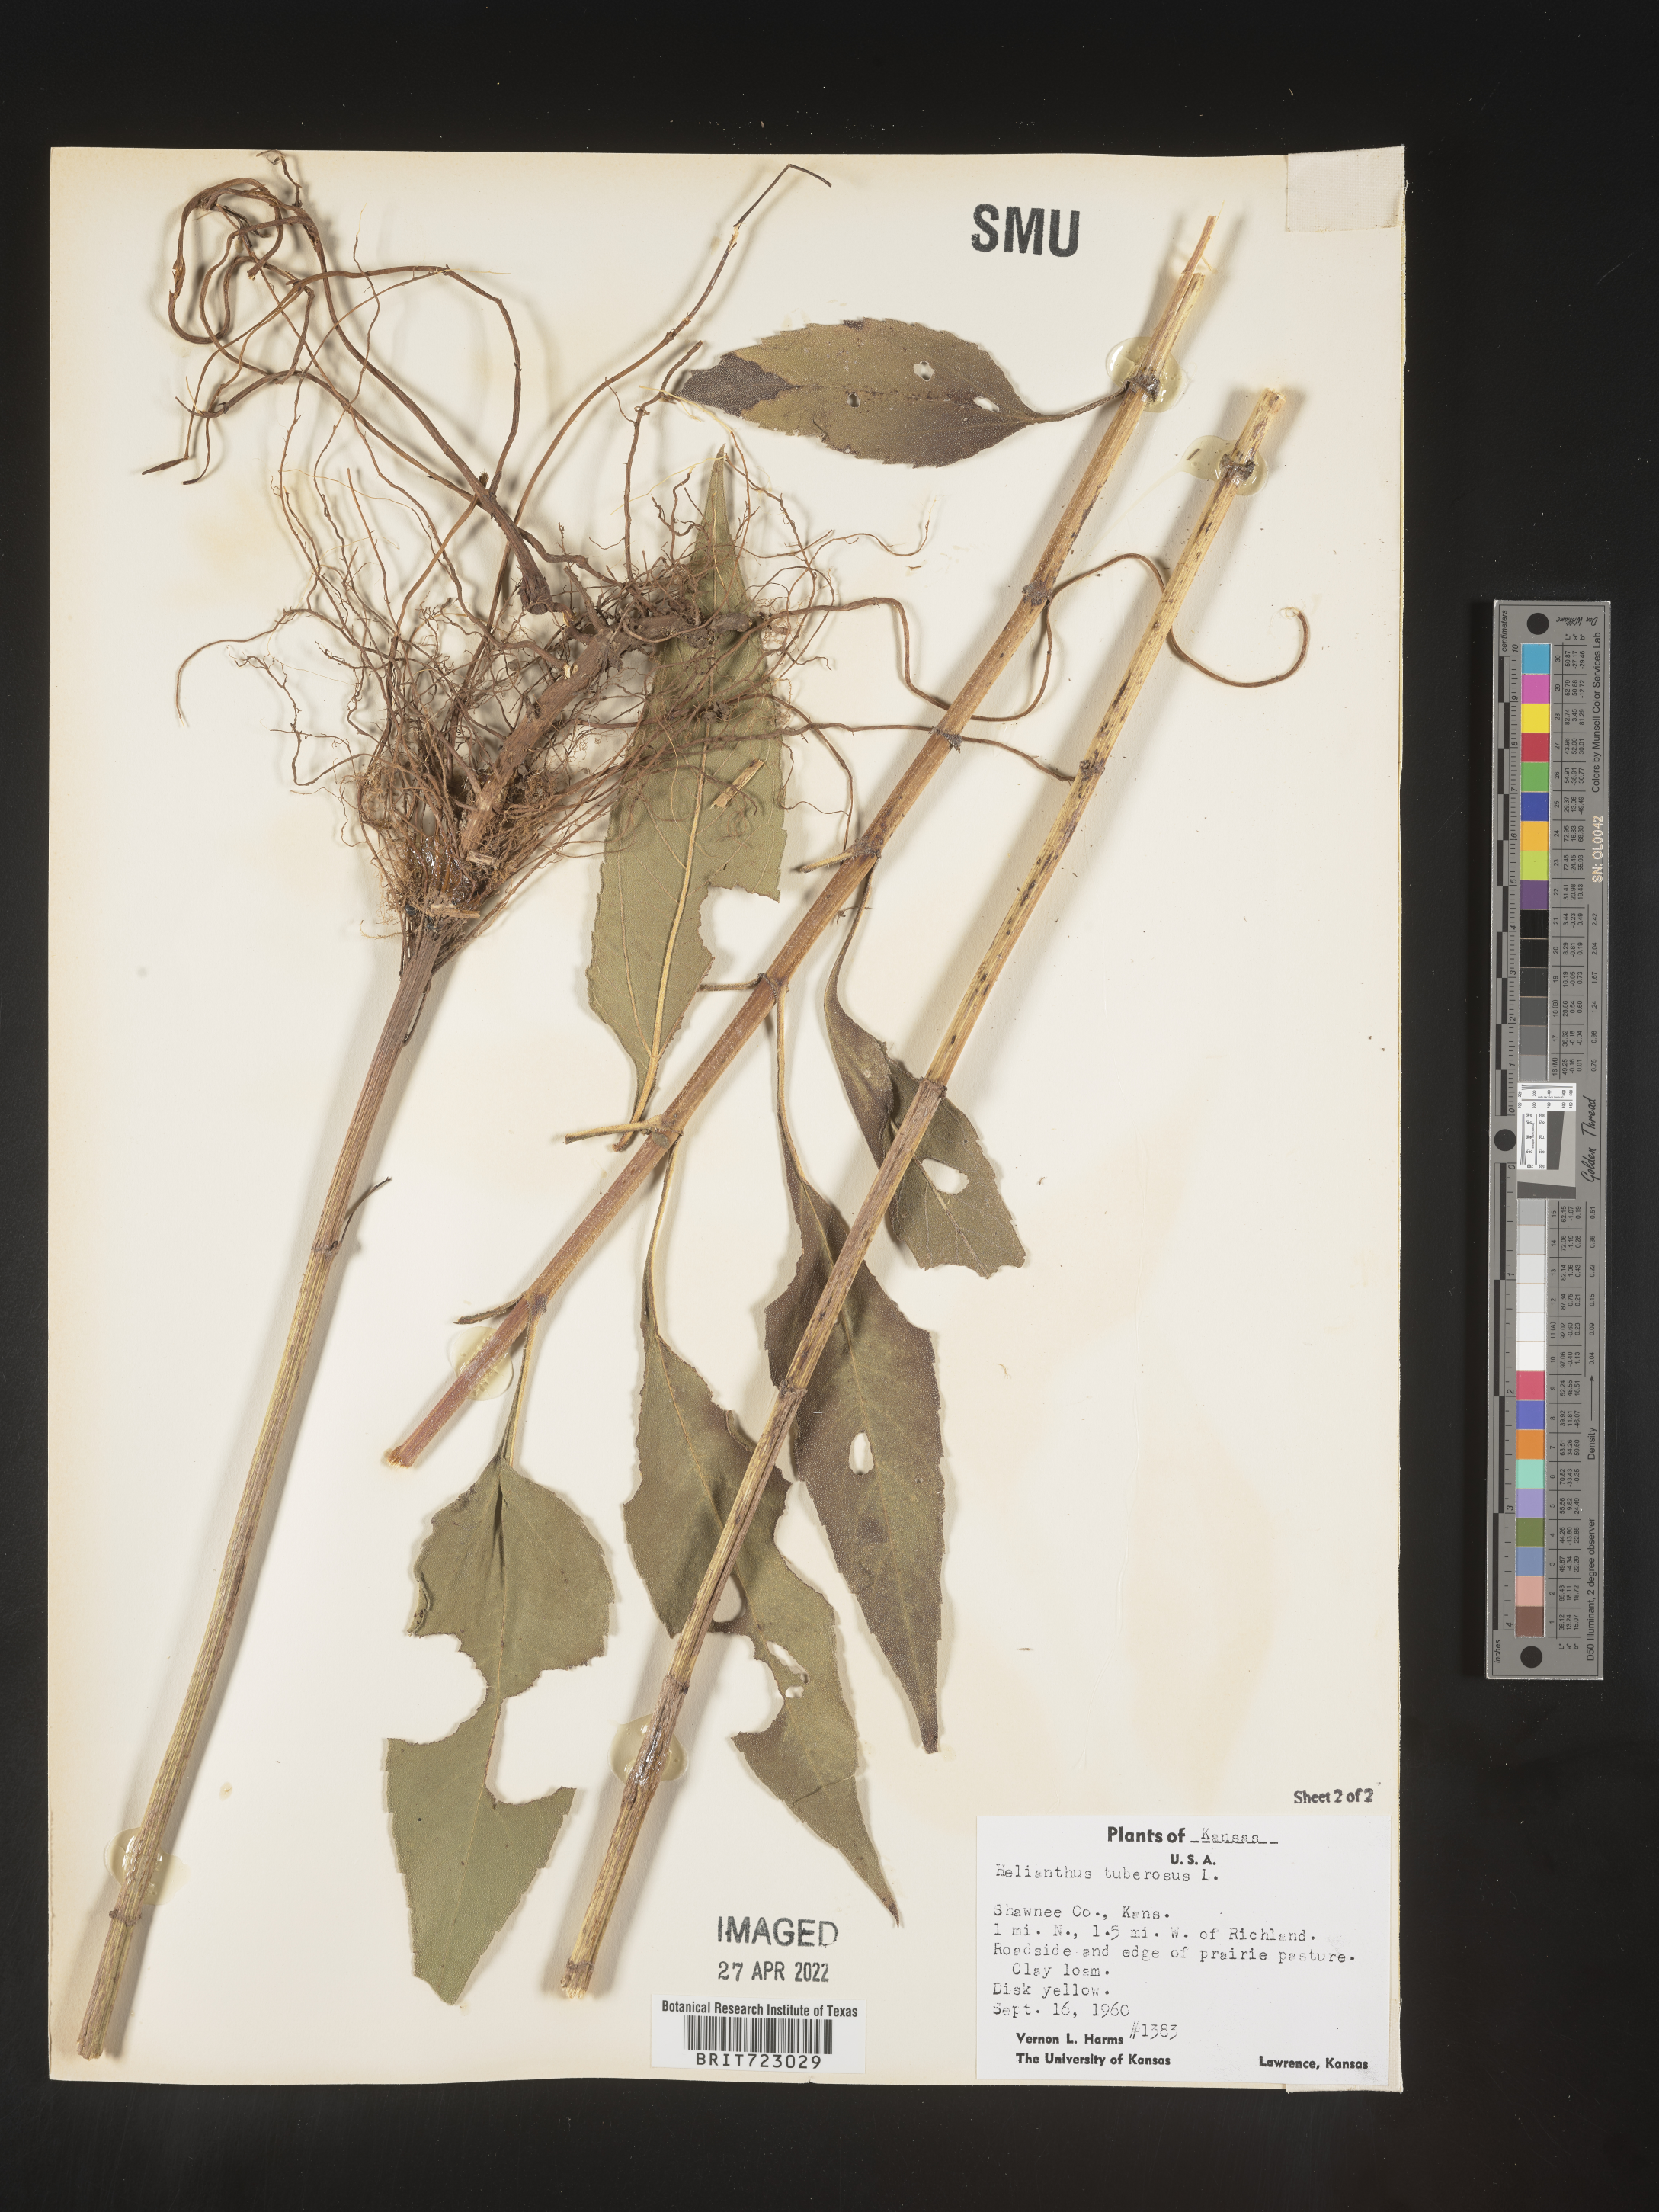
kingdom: Plantae
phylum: Tracheophyta
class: Magnoliopsida
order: Asterales
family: Asteraceae
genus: Helianthus
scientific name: Helianthus tuberosus
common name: Jerusalem artichoke
